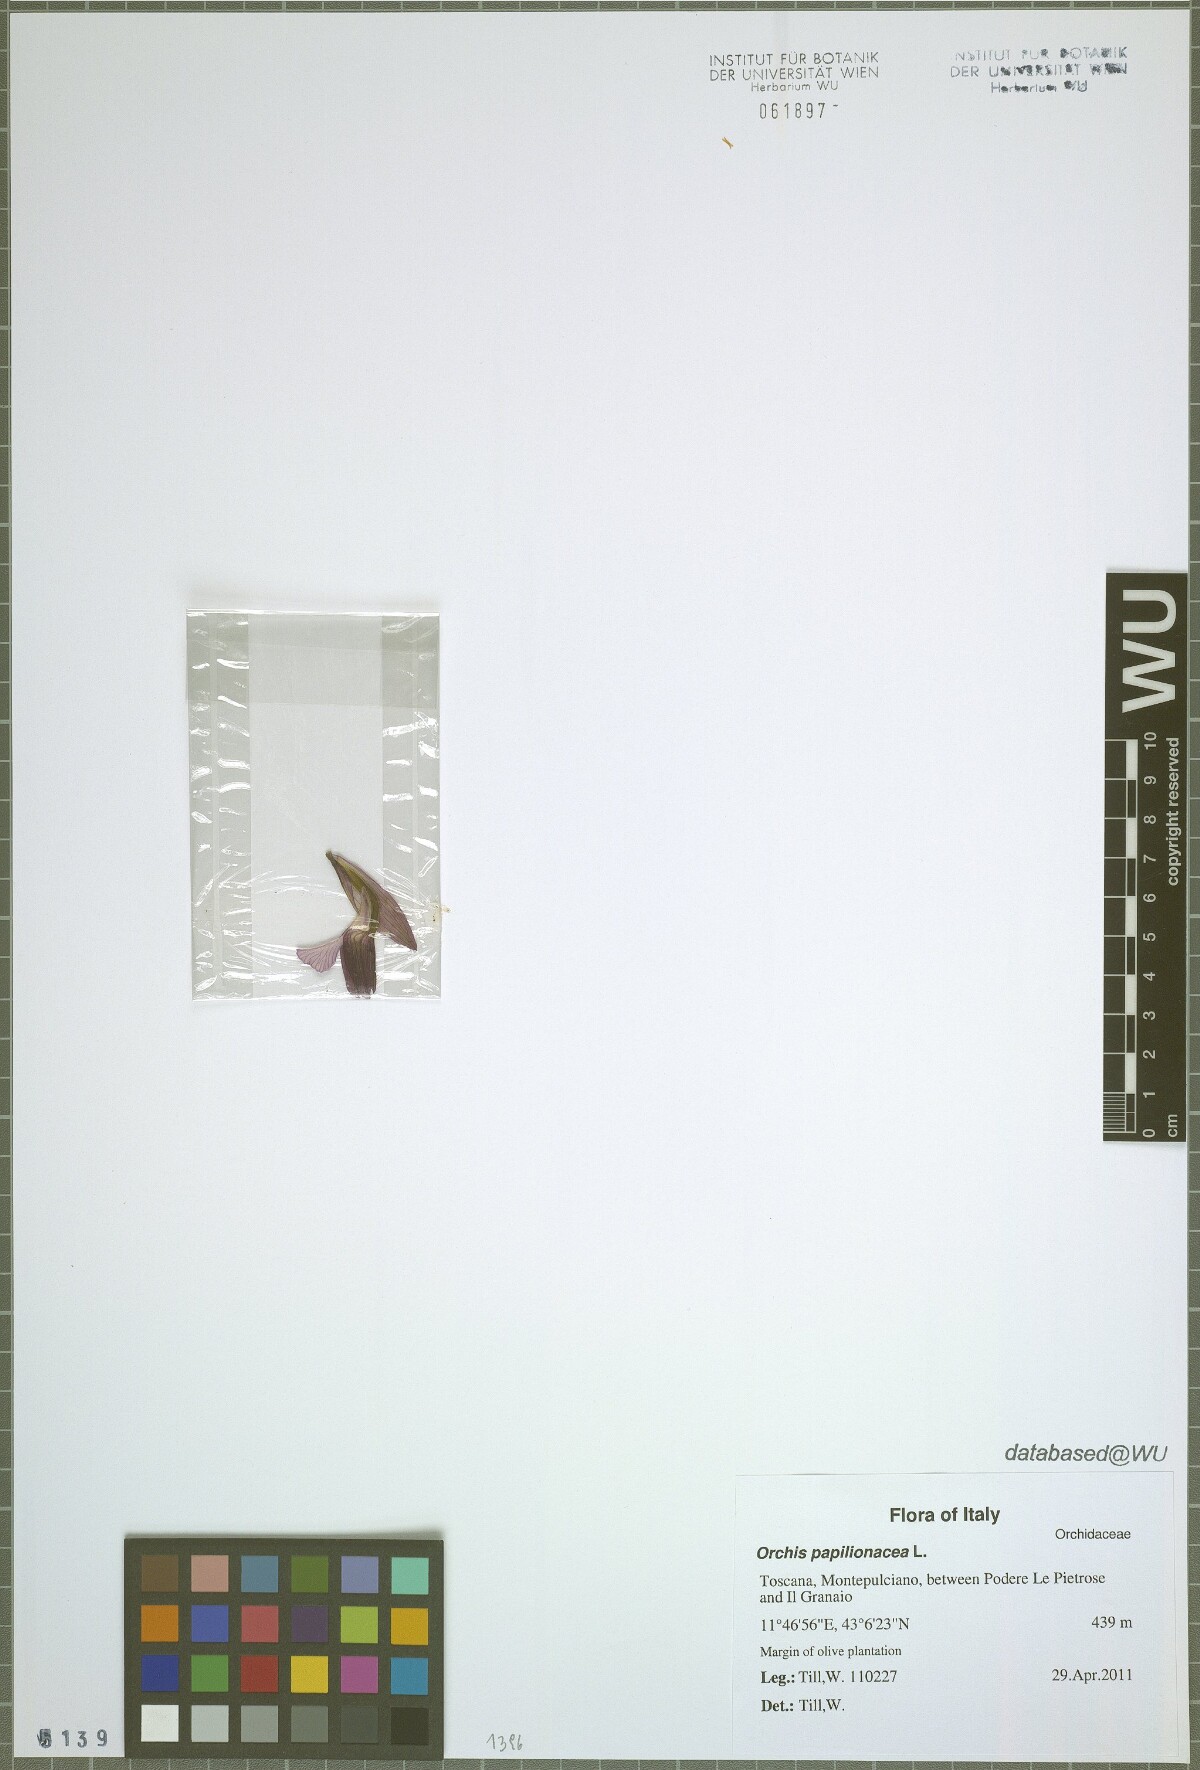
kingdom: Plantae
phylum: Tracheophyta
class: Liliopsida
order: Asparagales
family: Orchidaceae
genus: Anacamptis
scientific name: Anacamptis papilionacea
